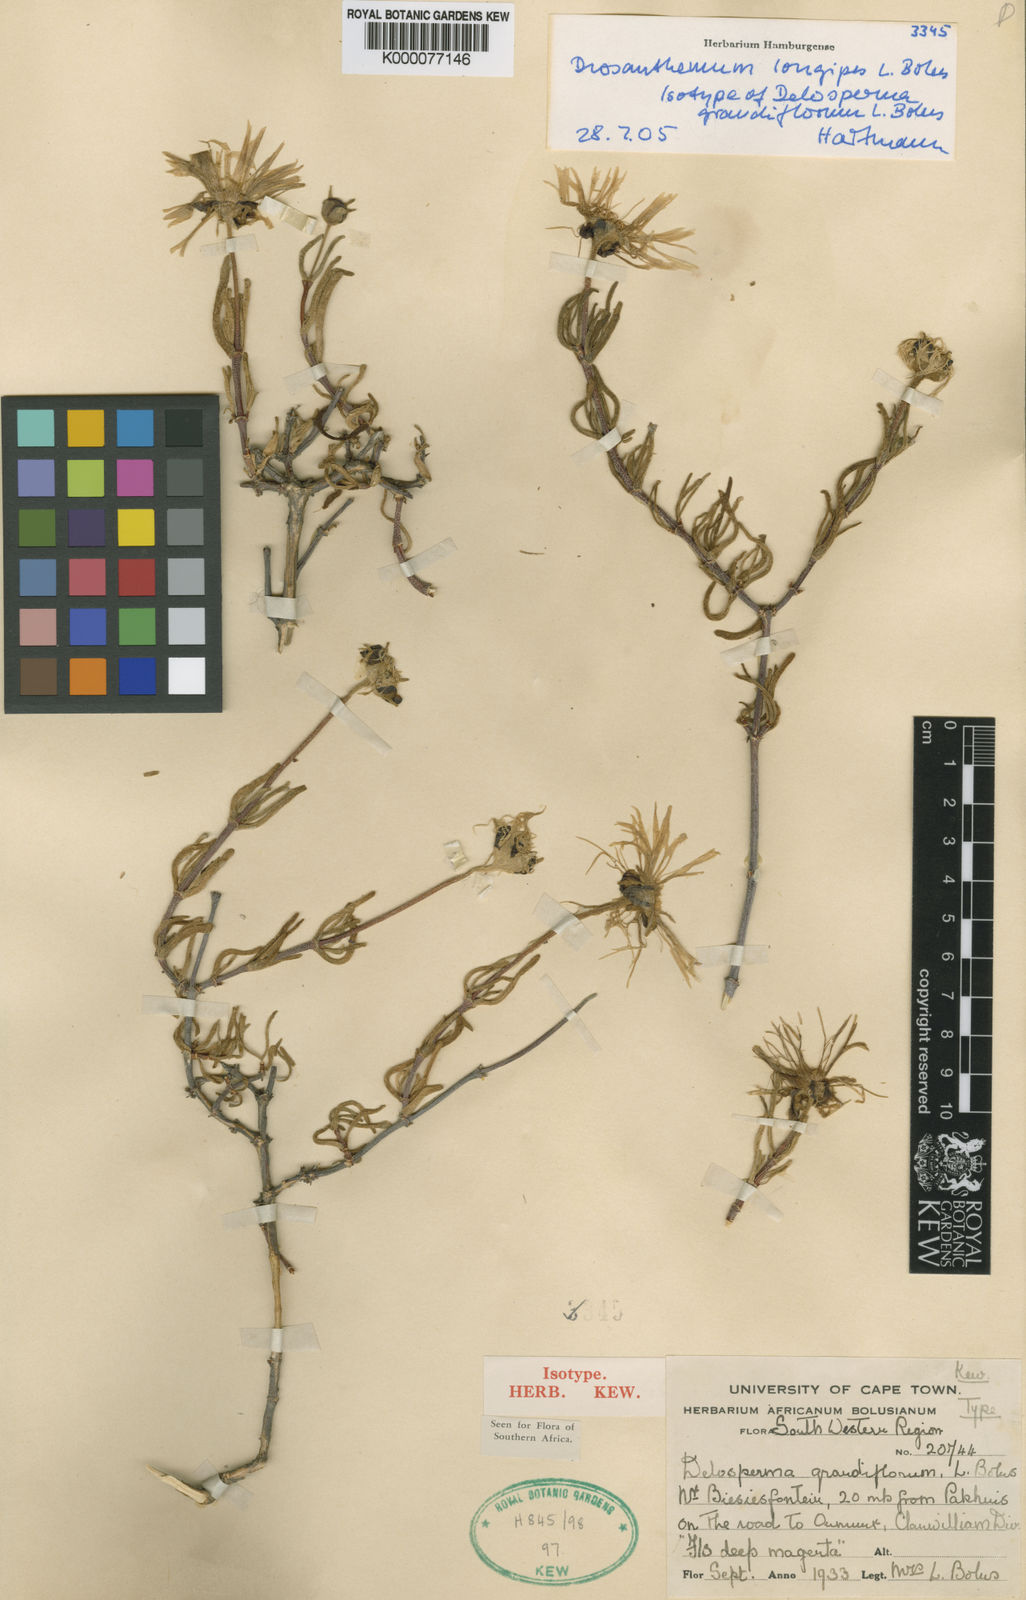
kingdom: Plantae
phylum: Tracheophyta
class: Magnoliopsida
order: Caryophyllales
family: Aizoaceae
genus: Drosanthemum
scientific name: Drosanthemum longipes
